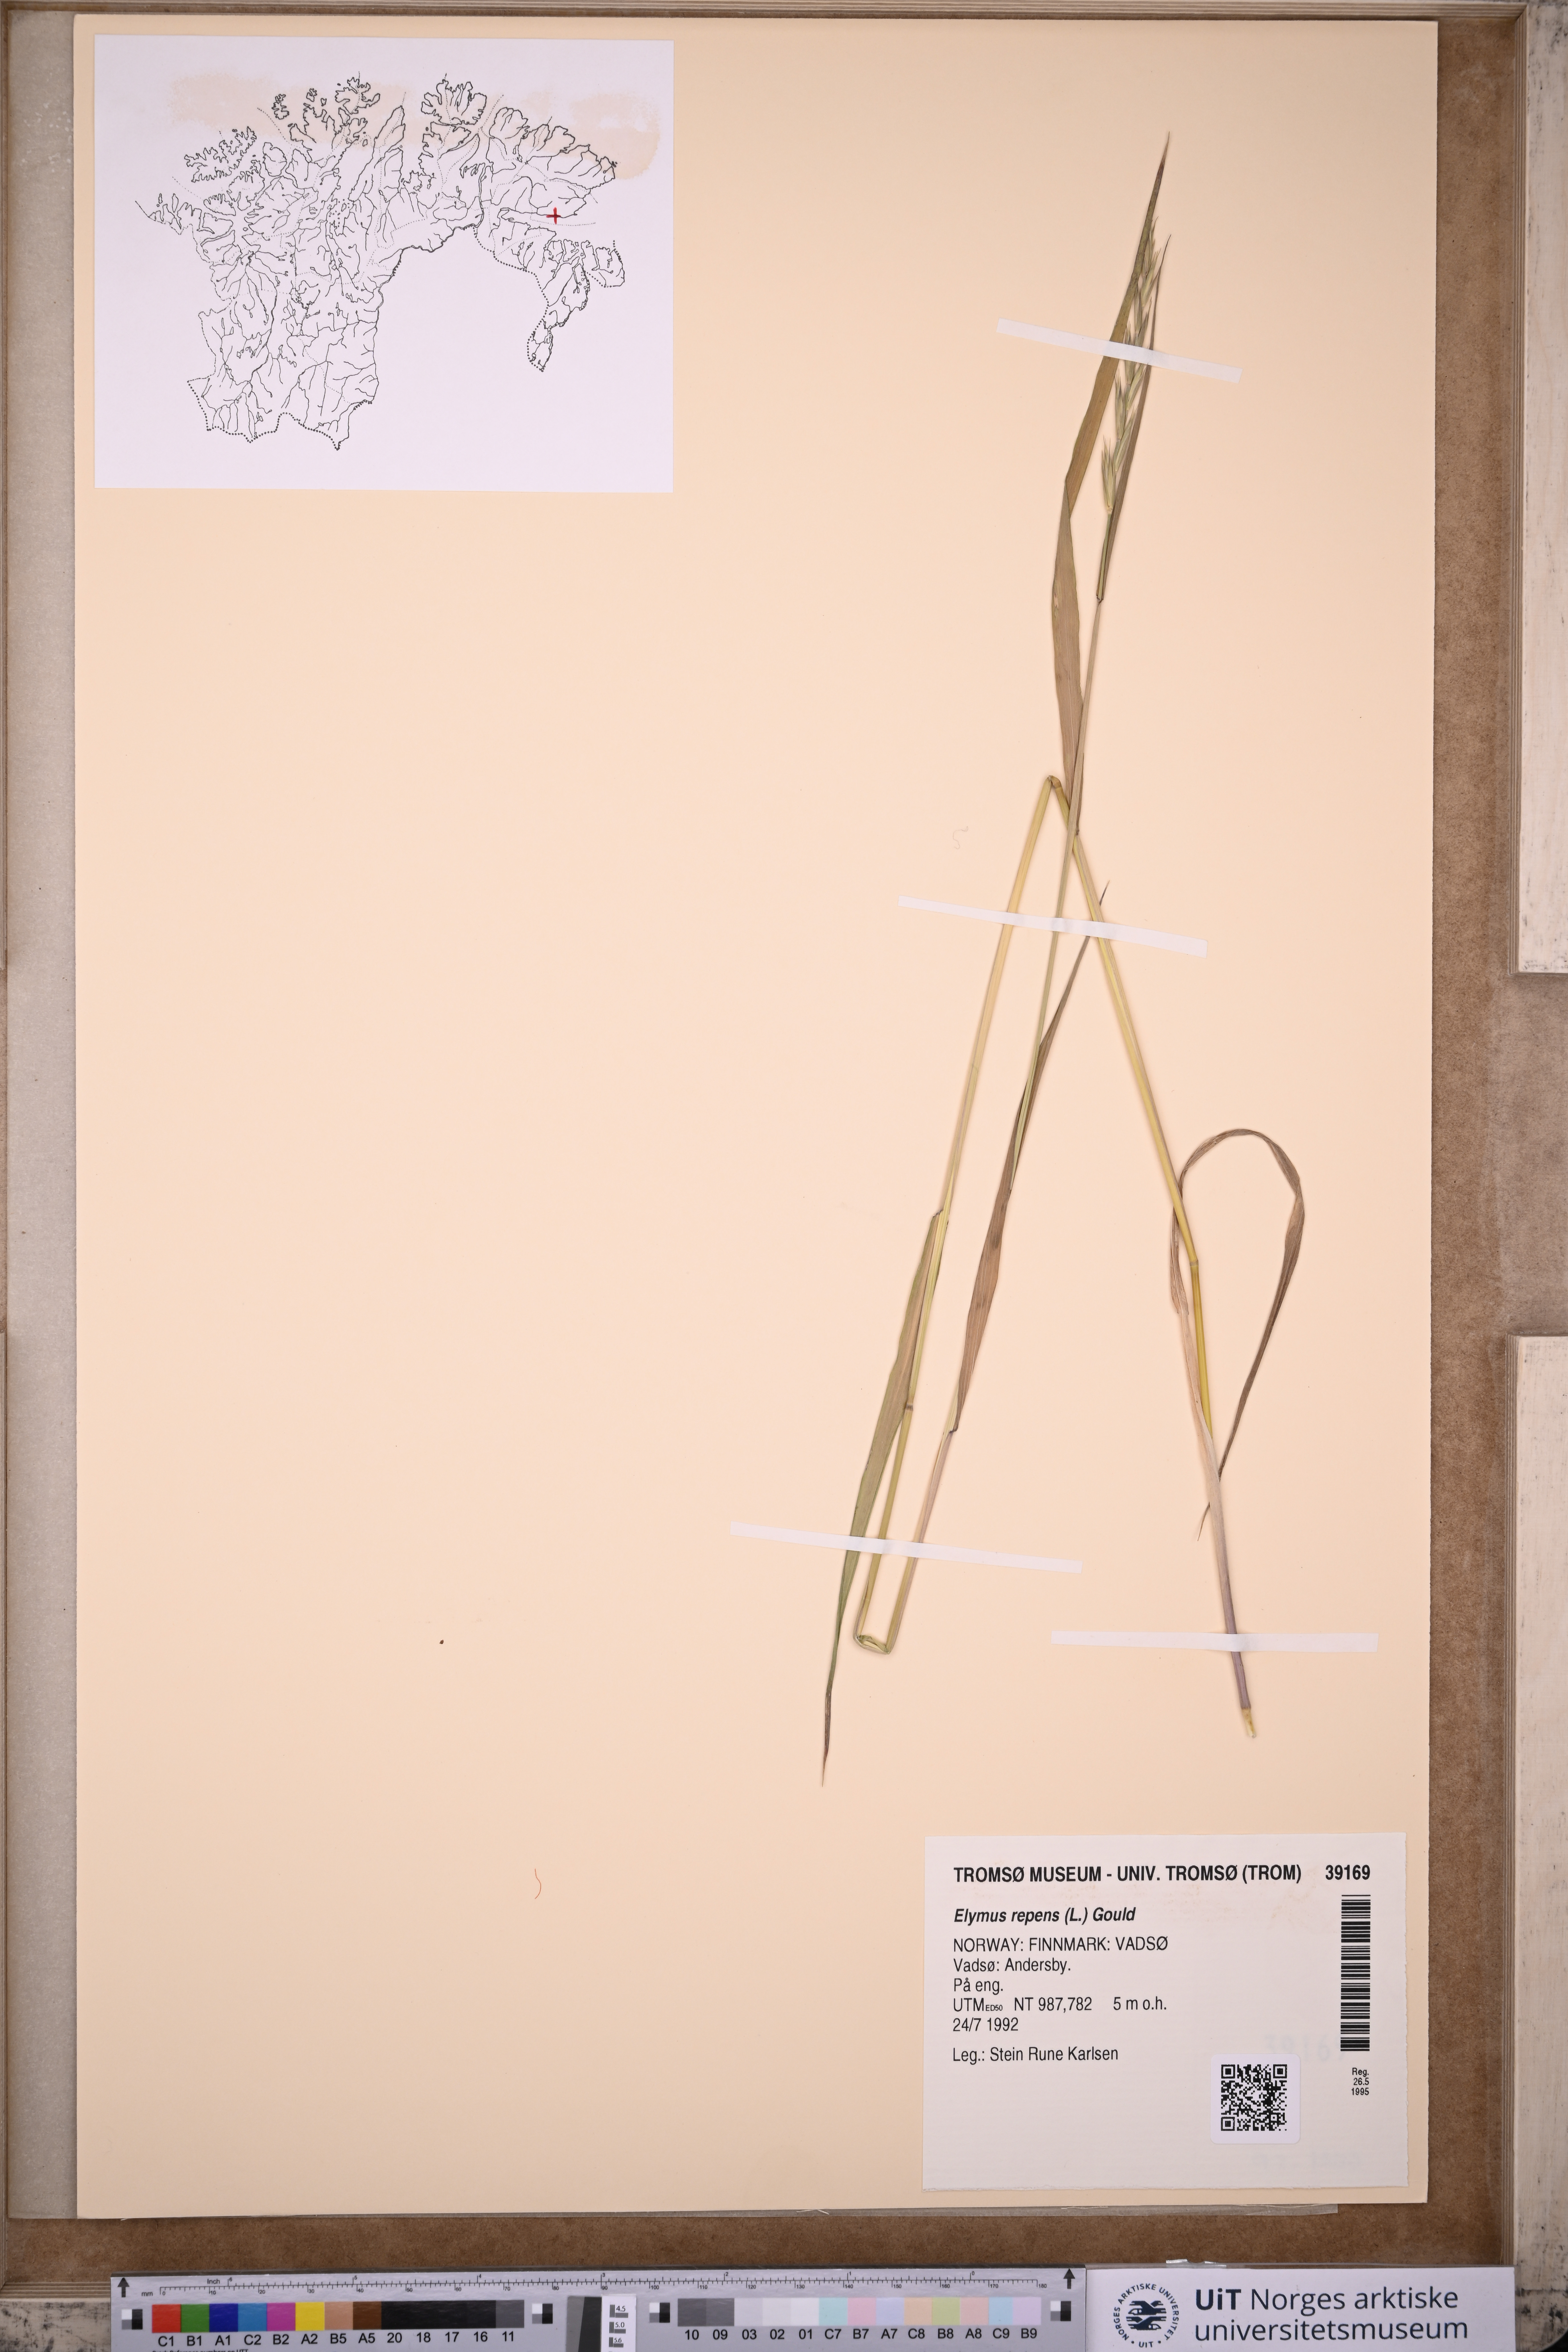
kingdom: Plantae
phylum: Tracheophyta
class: Liliopsida
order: Poales
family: Poaceae
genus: Elymus
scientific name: Elymus repens
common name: Quackgrass
